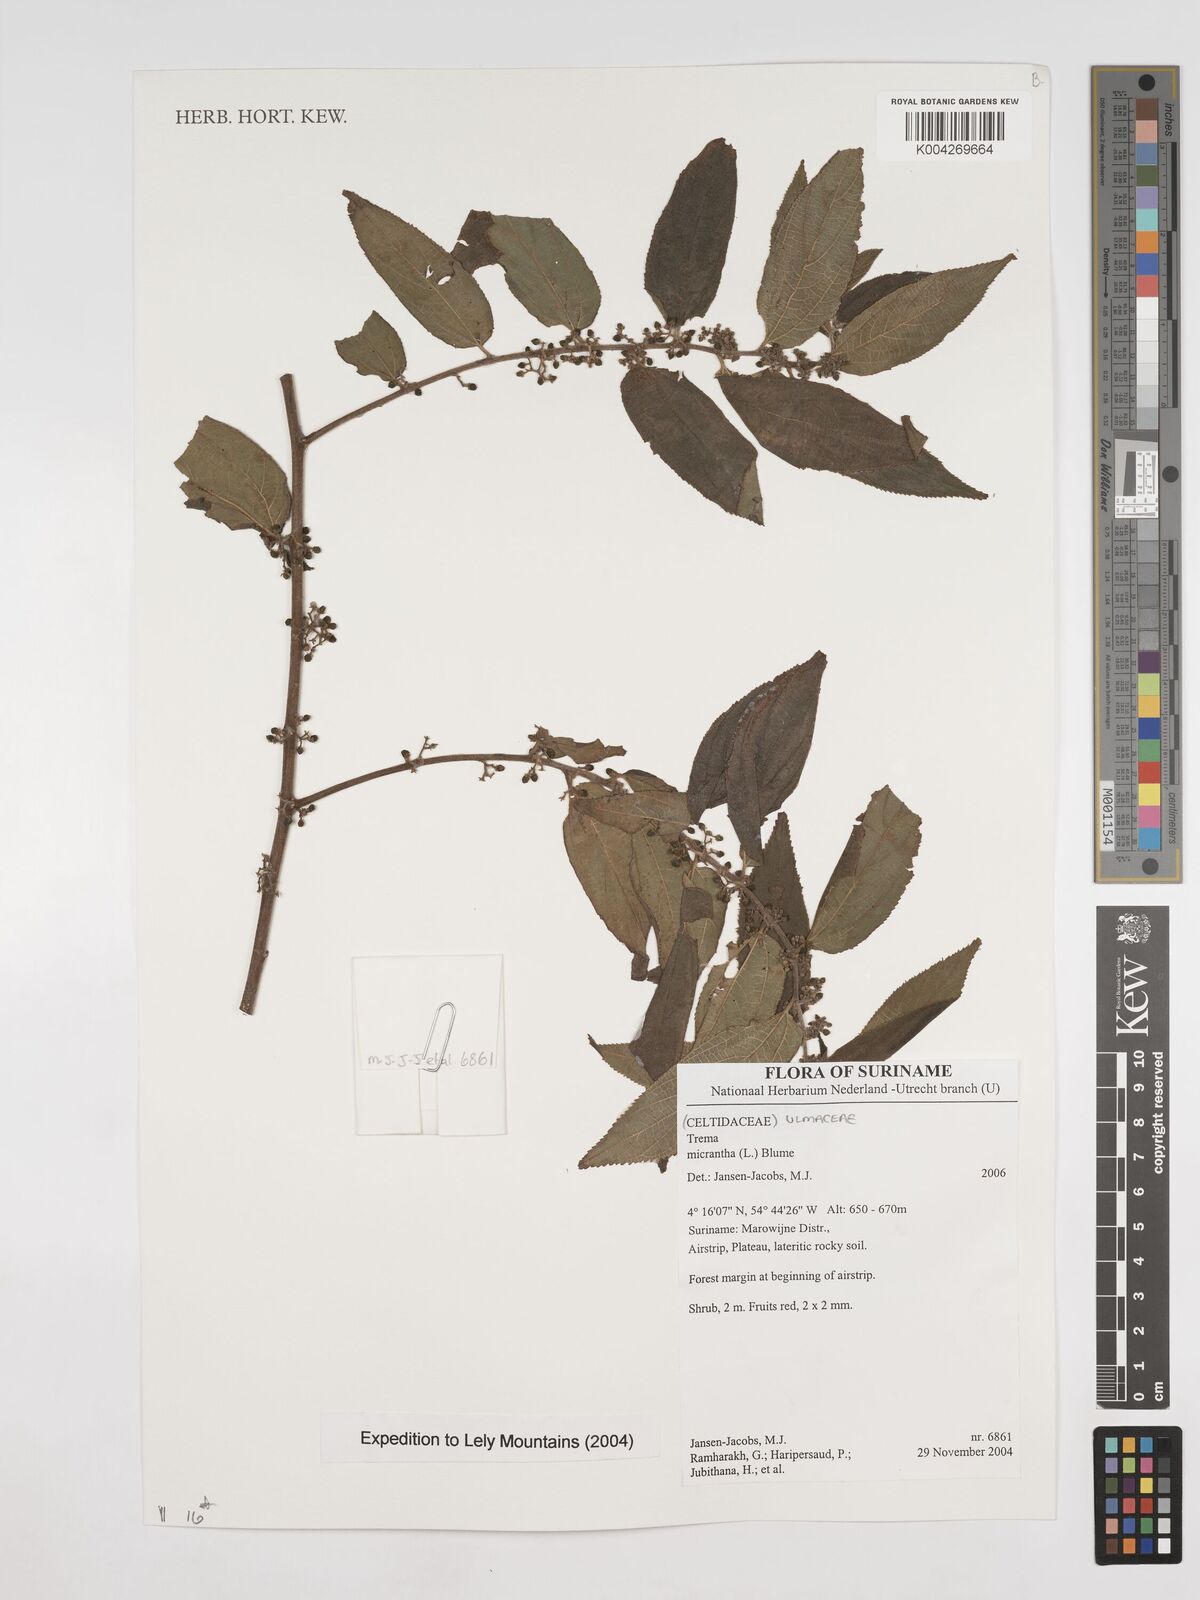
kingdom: Plantae
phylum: Tracheophyta
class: Magnoliopsida
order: Rosales
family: Cannabaceae
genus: Trema
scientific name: Trema micranthum
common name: Jamaican nettletree
